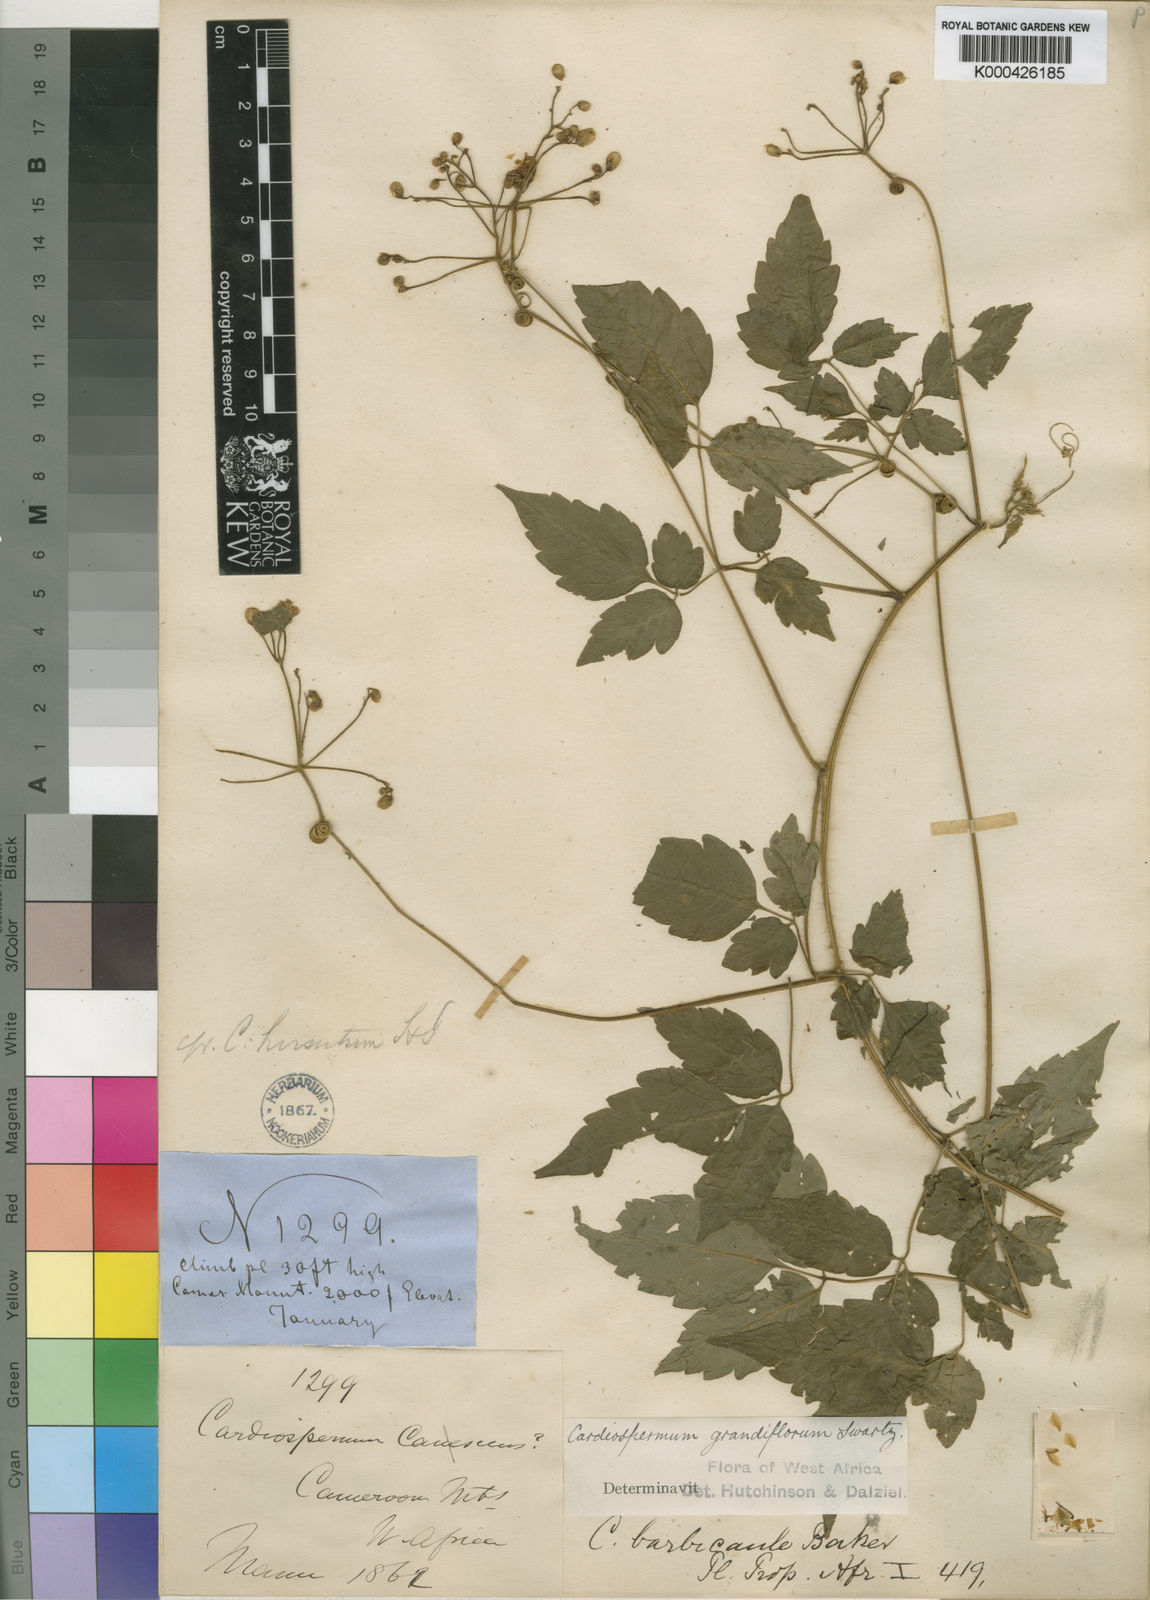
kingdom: Plantae
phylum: Tracheophyta
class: Magnoliopsida
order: Sapindales
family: Sapindaceae
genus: Cardiospermum
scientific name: Cardiospermum grandiflorum
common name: Balloon vine
